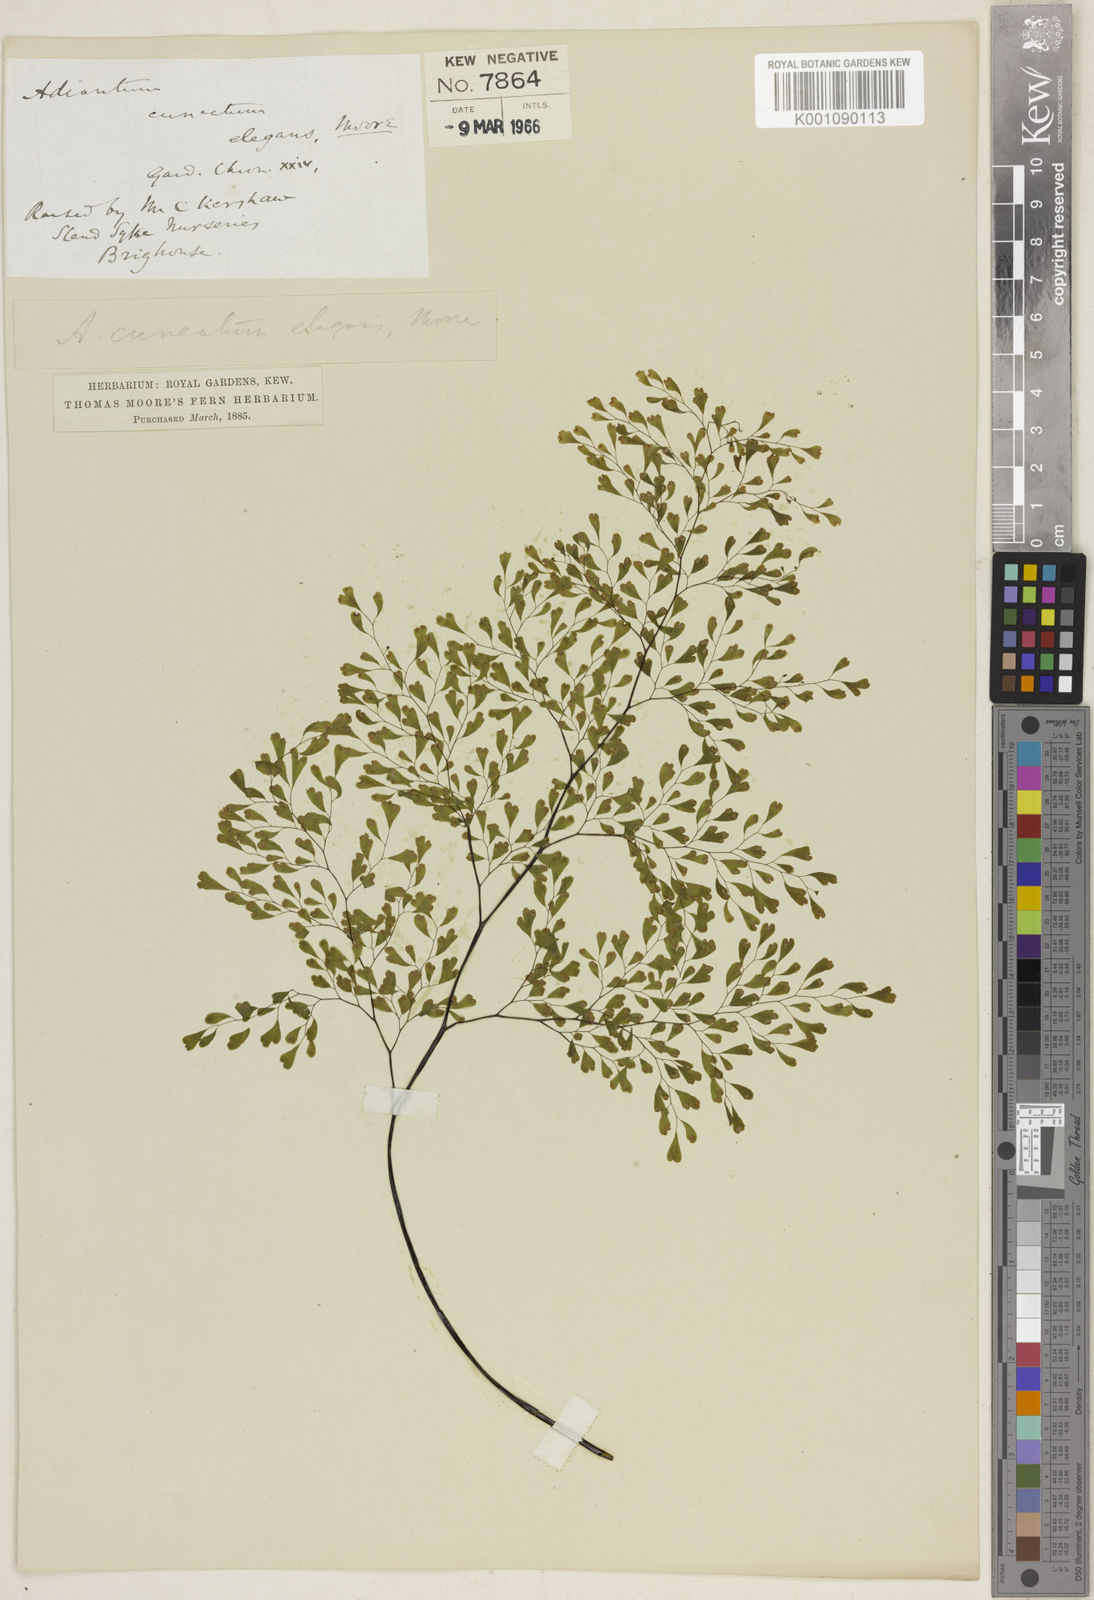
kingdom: Plantae
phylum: Tracheophyta
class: Polypodiopsida
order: Polypodiales
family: Pteridaceae
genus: Adiantum
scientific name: Adiantum raddianum
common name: Delta maidenhair fern
